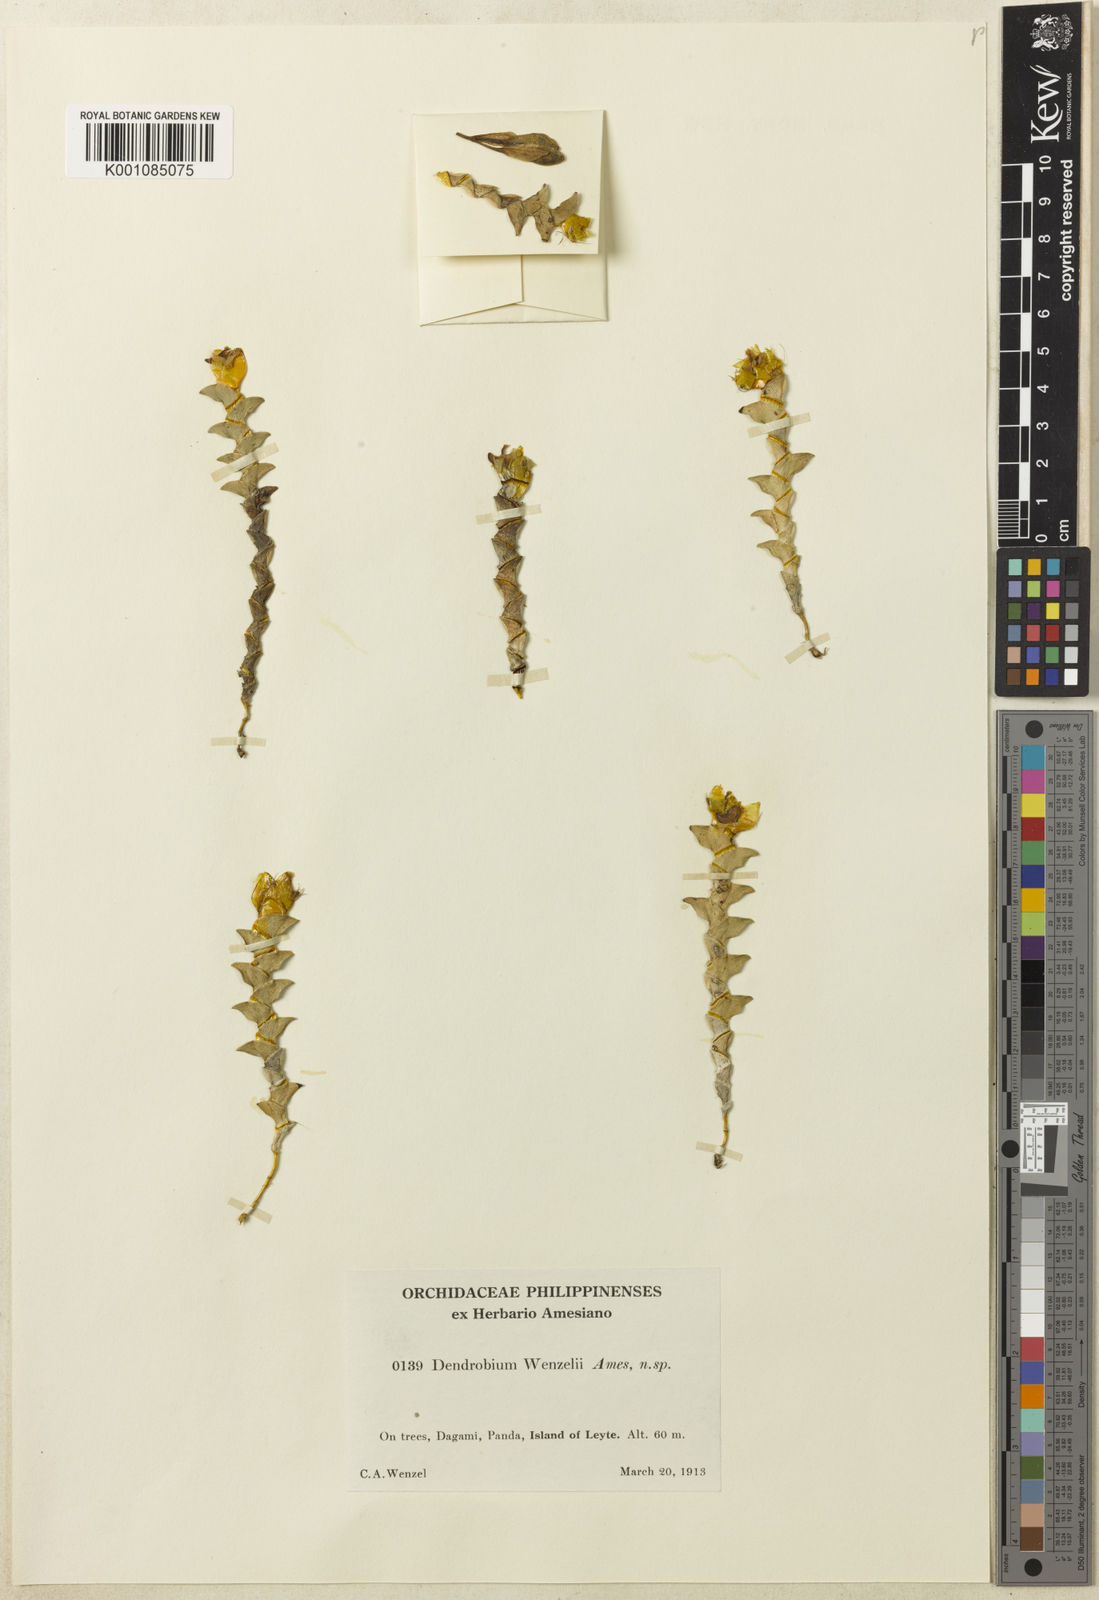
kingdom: Plantae
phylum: Tracheophyta
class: Liliopsida
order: Asparagales
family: Orchidaceae
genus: Dendrobium
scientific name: Dendrobium wenzelii
